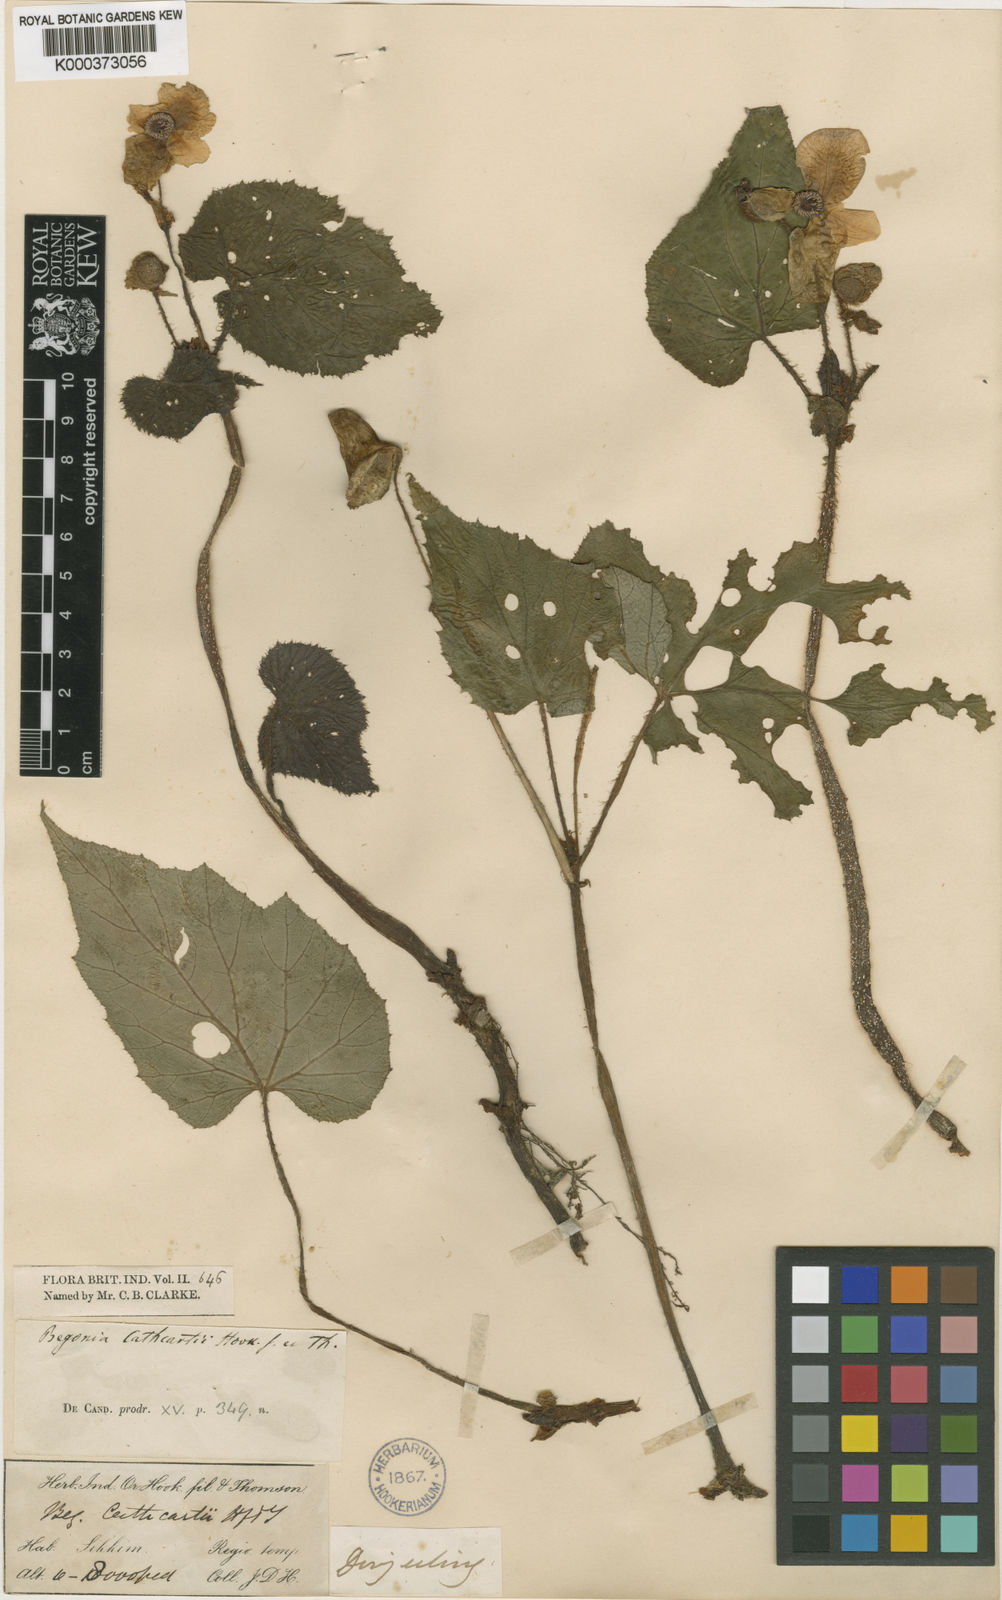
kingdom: Plantae
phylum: Tracheophyta
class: Magnoliopsida
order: Cucurbitales
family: Begoniaceae
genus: Begonia
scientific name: Begonia cathcartii
